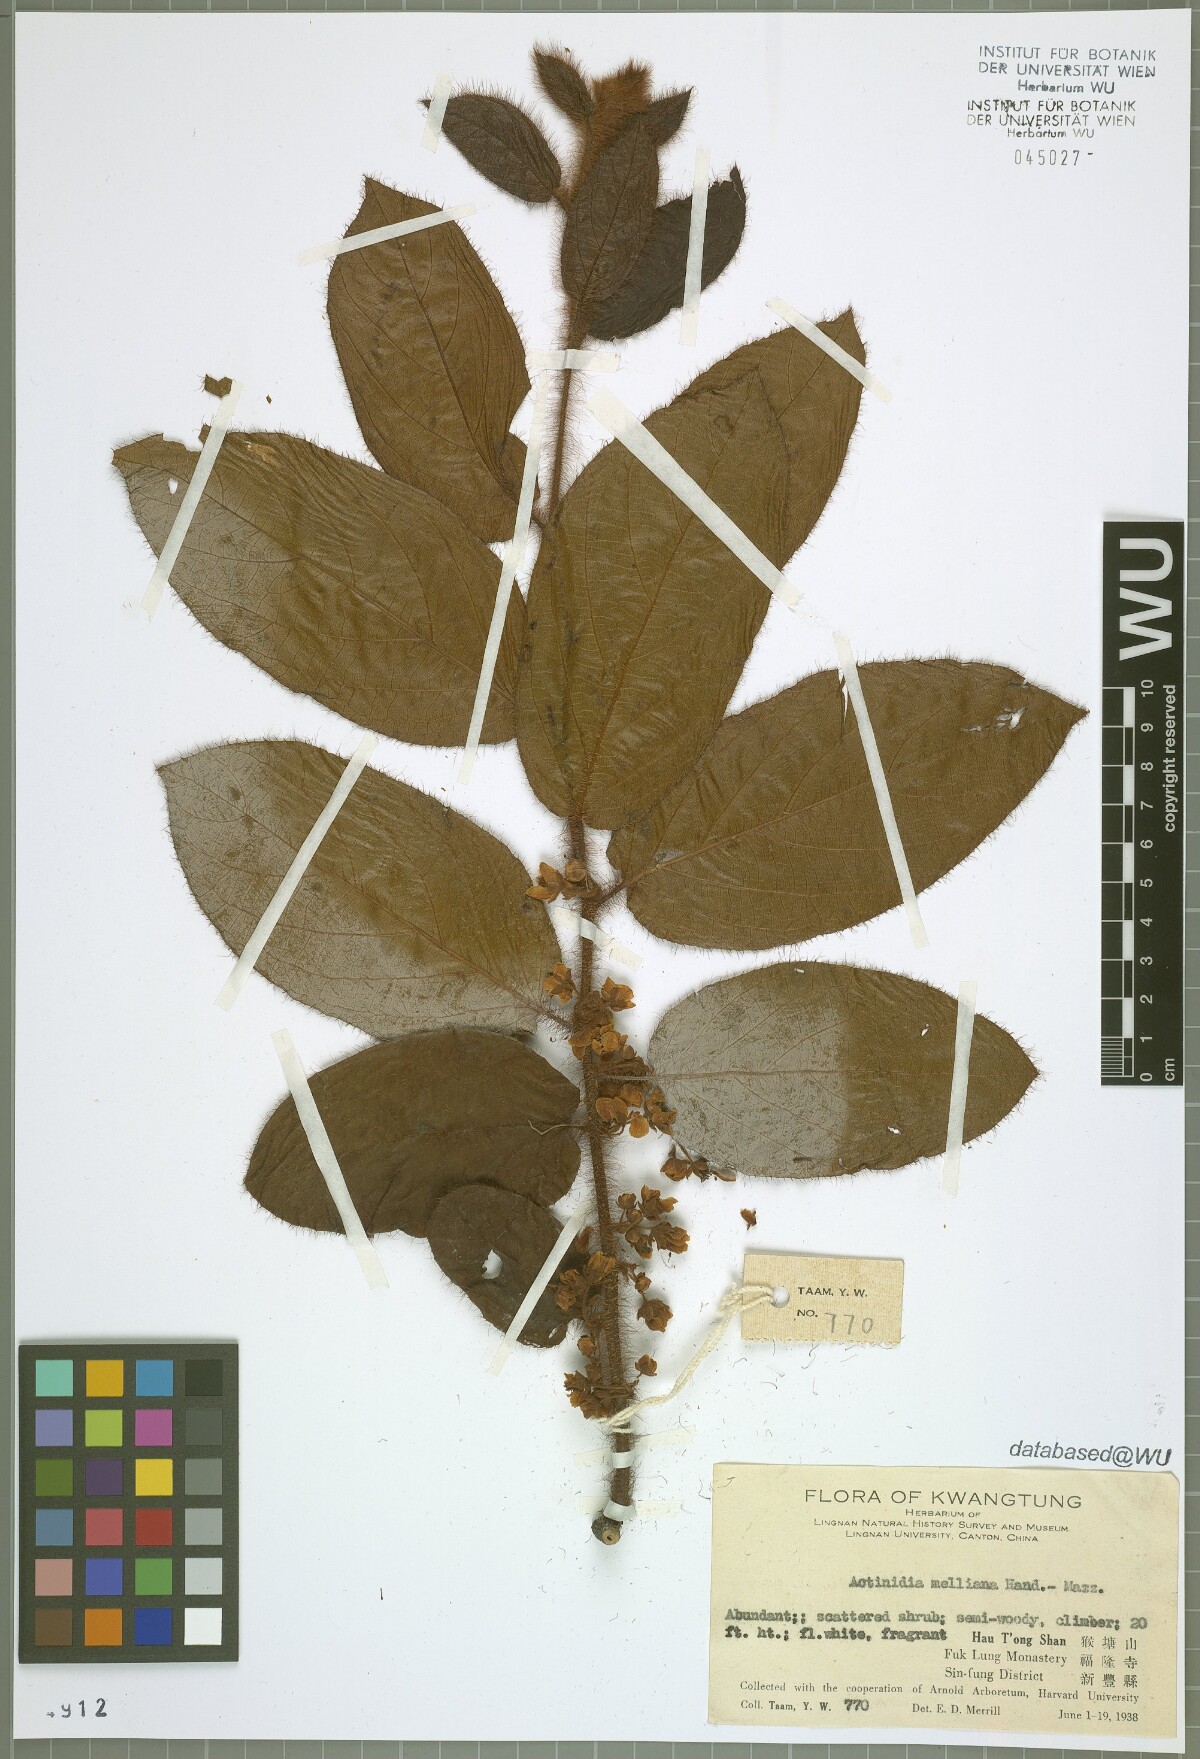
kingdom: Plantae
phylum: Tracheophyta
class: Magnoliopsida
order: Ericales
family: Actinidiaceae
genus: Actinidia
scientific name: Actinidia melliana
